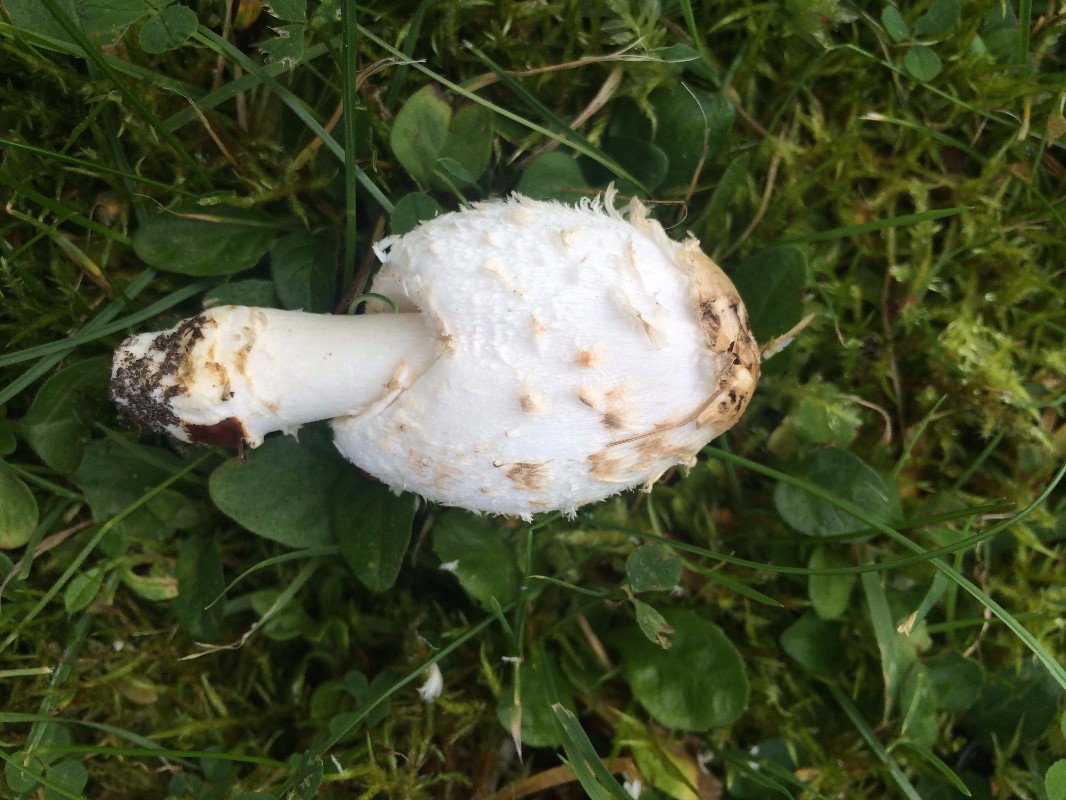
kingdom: Fungi
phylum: Basidiomycota
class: Agaricomycetes
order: Agaricales
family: Agaricaceae
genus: Coprinus
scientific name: Coprinus comatus
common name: stor parykhat
